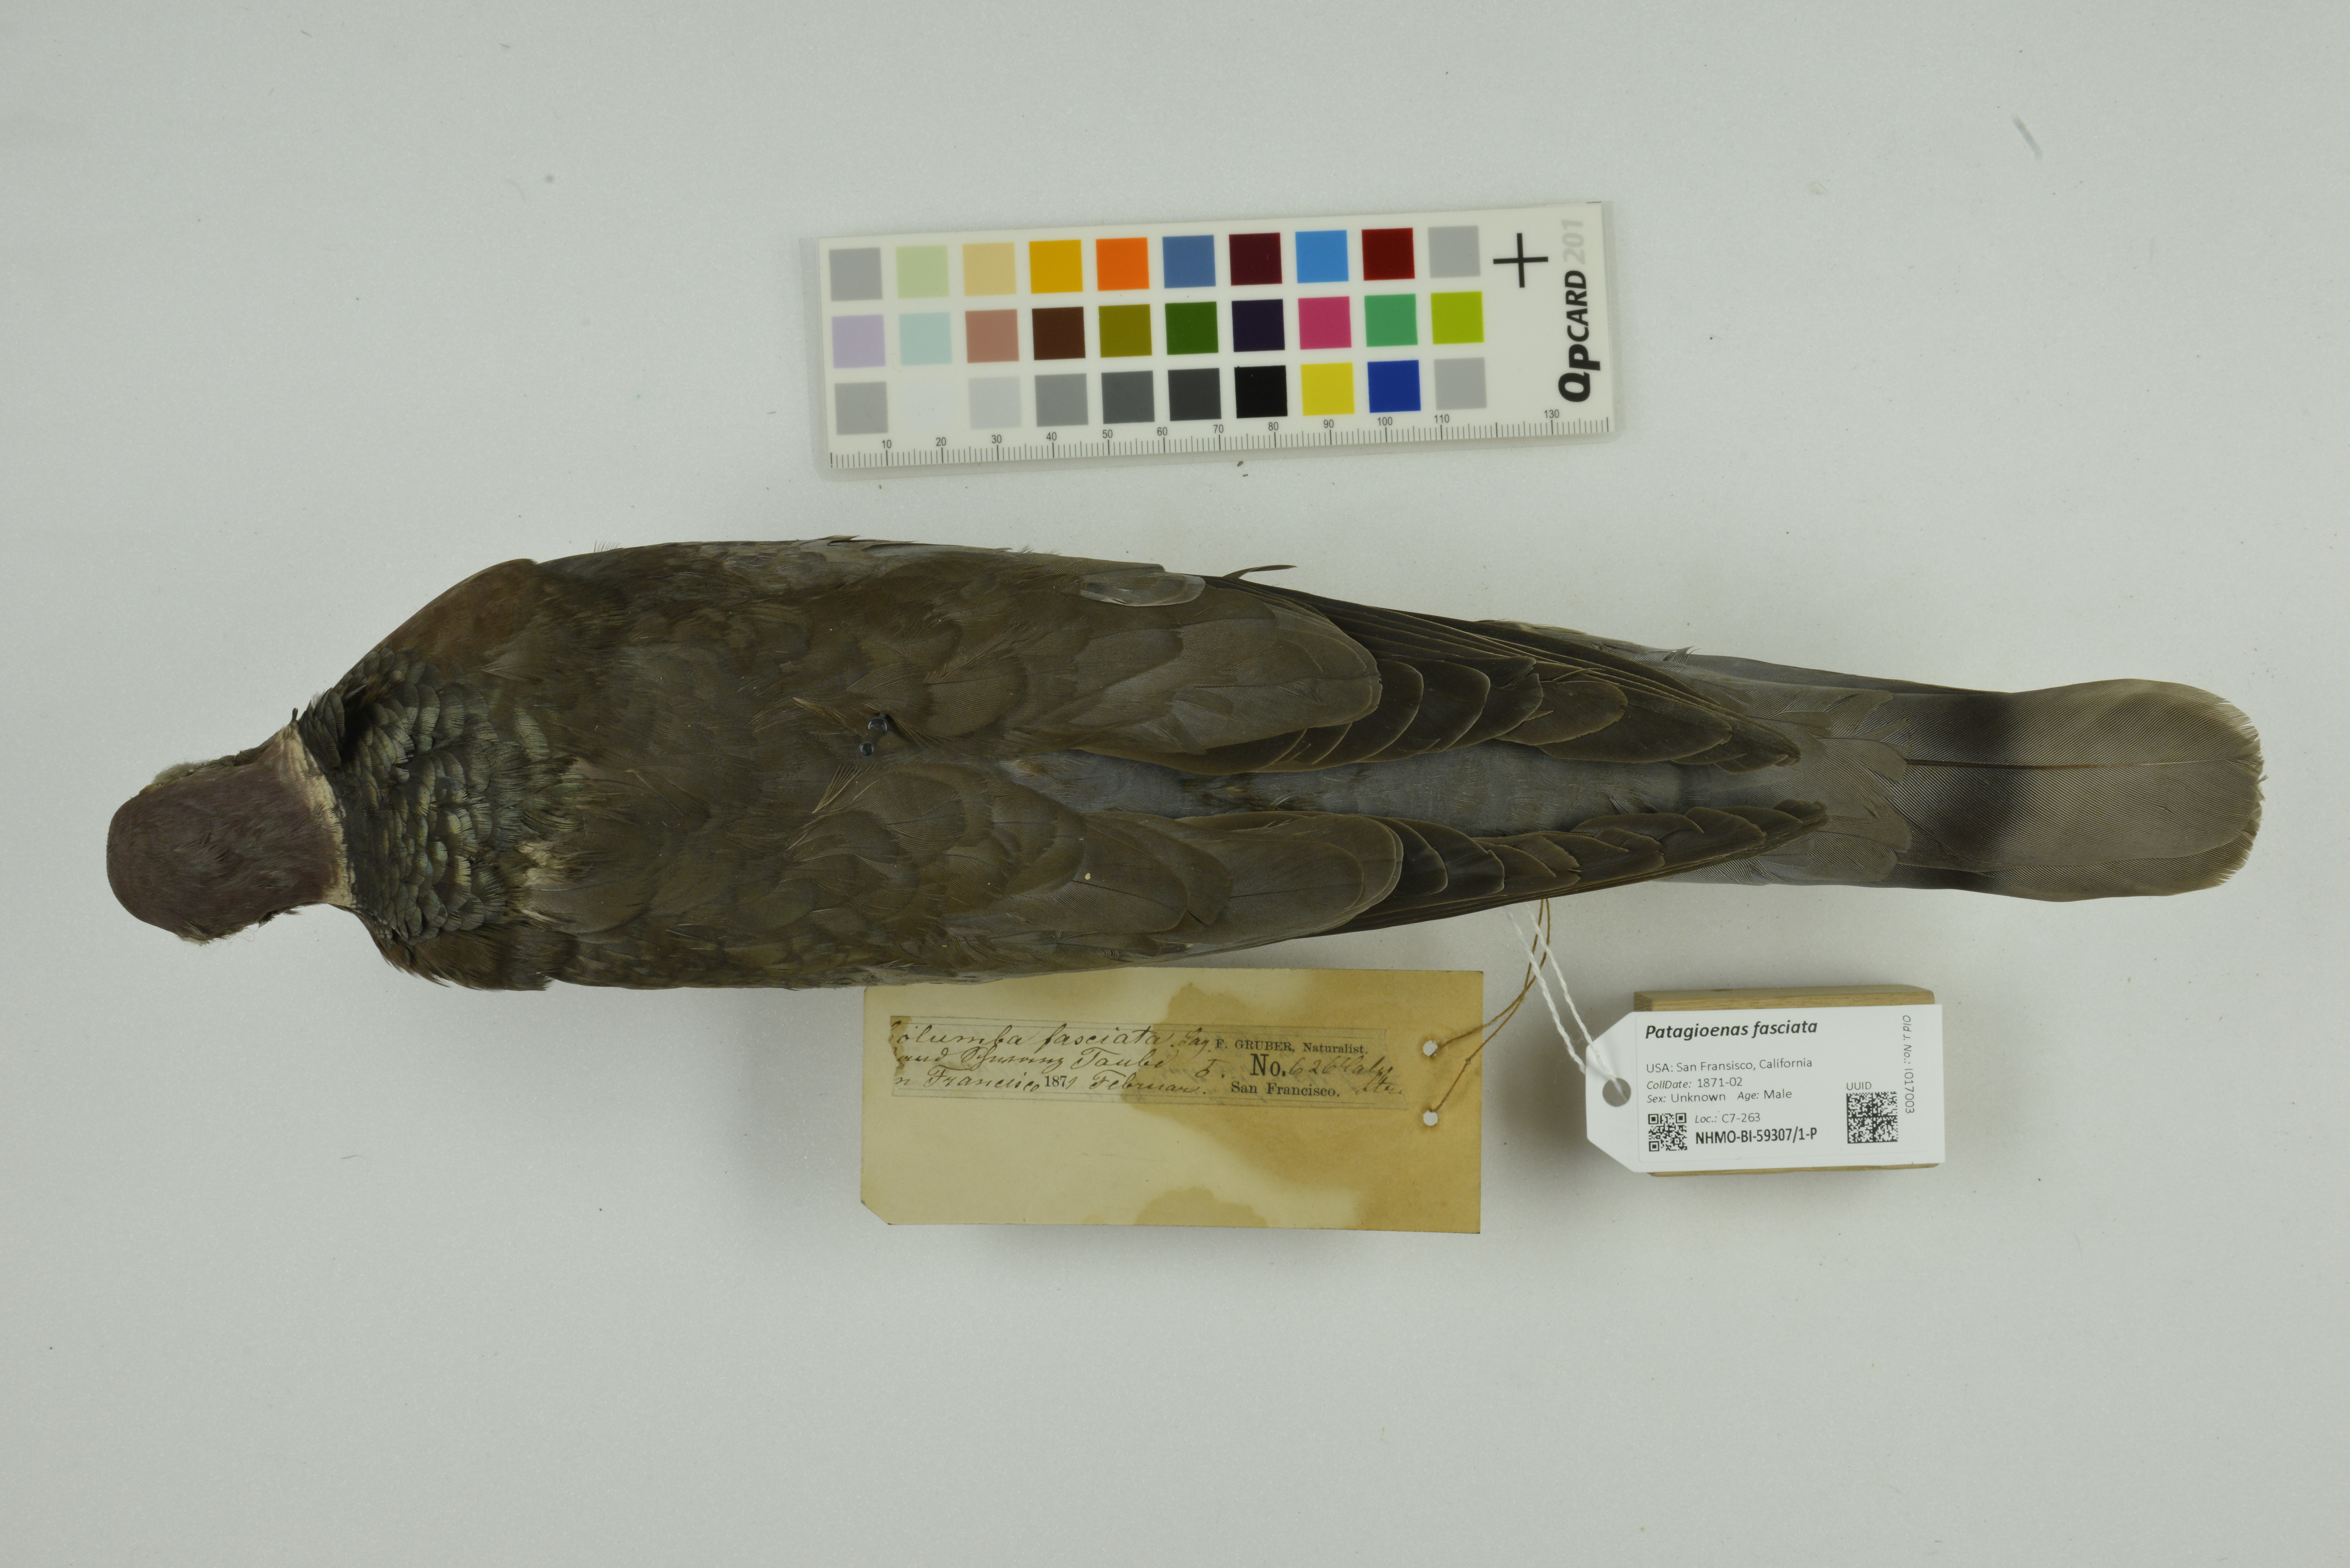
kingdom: Animalia
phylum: Chordata
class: Aves
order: Columbiformes
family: Columbidae
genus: Patagioenas
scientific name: Patagioenas fasciata
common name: Band-tailed pigeon
